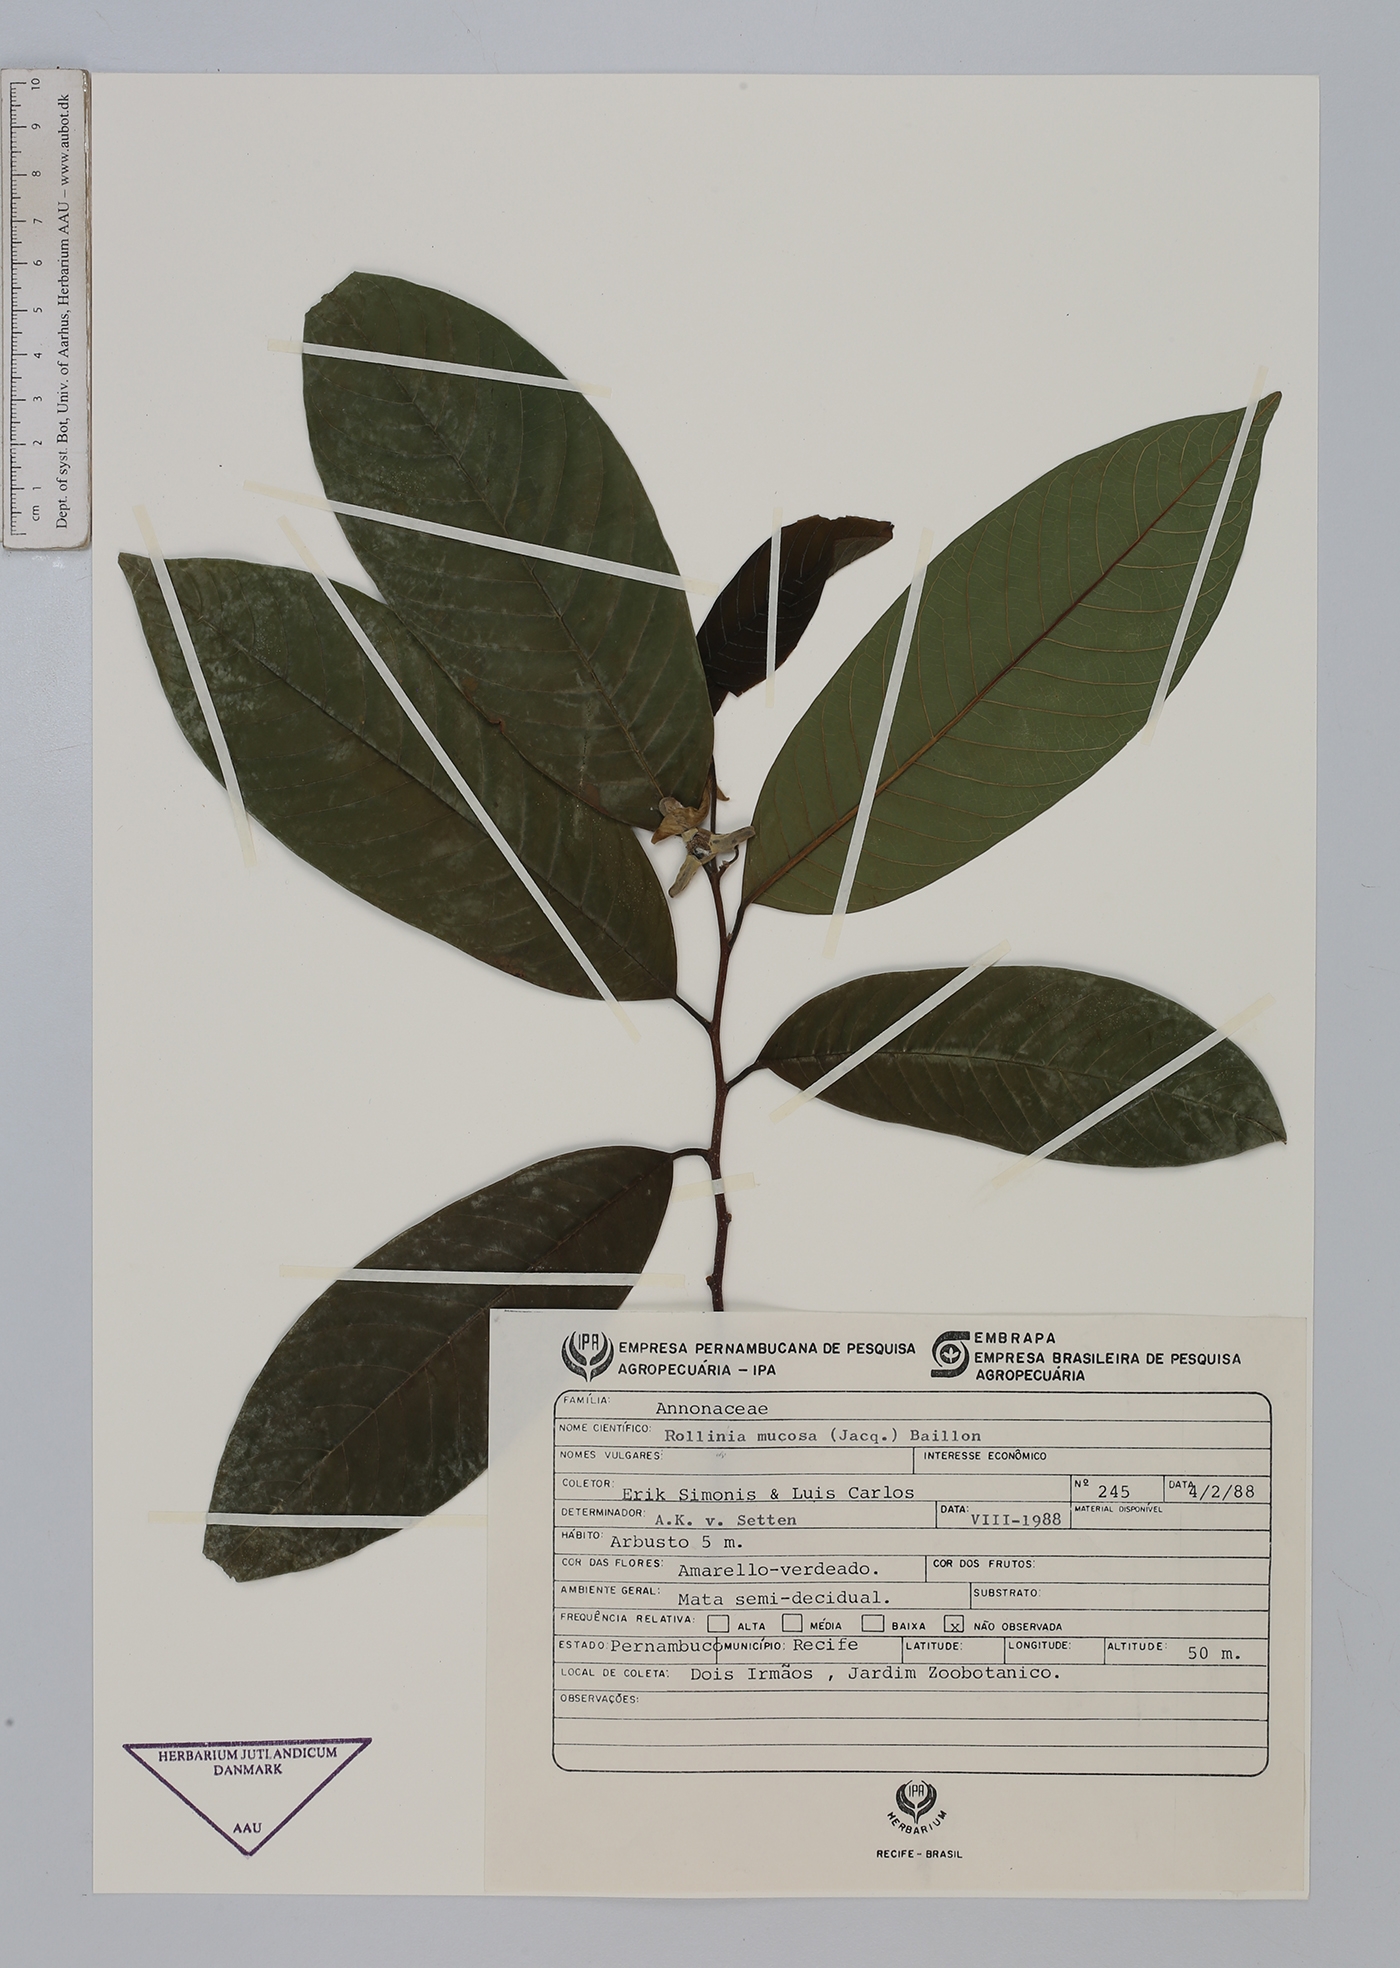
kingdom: Plantae
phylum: Tracheophyta
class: Magnoliopsida
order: Magnoliales
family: Annonaceae
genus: Annona
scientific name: Annona mucosa
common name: Sugar apple
